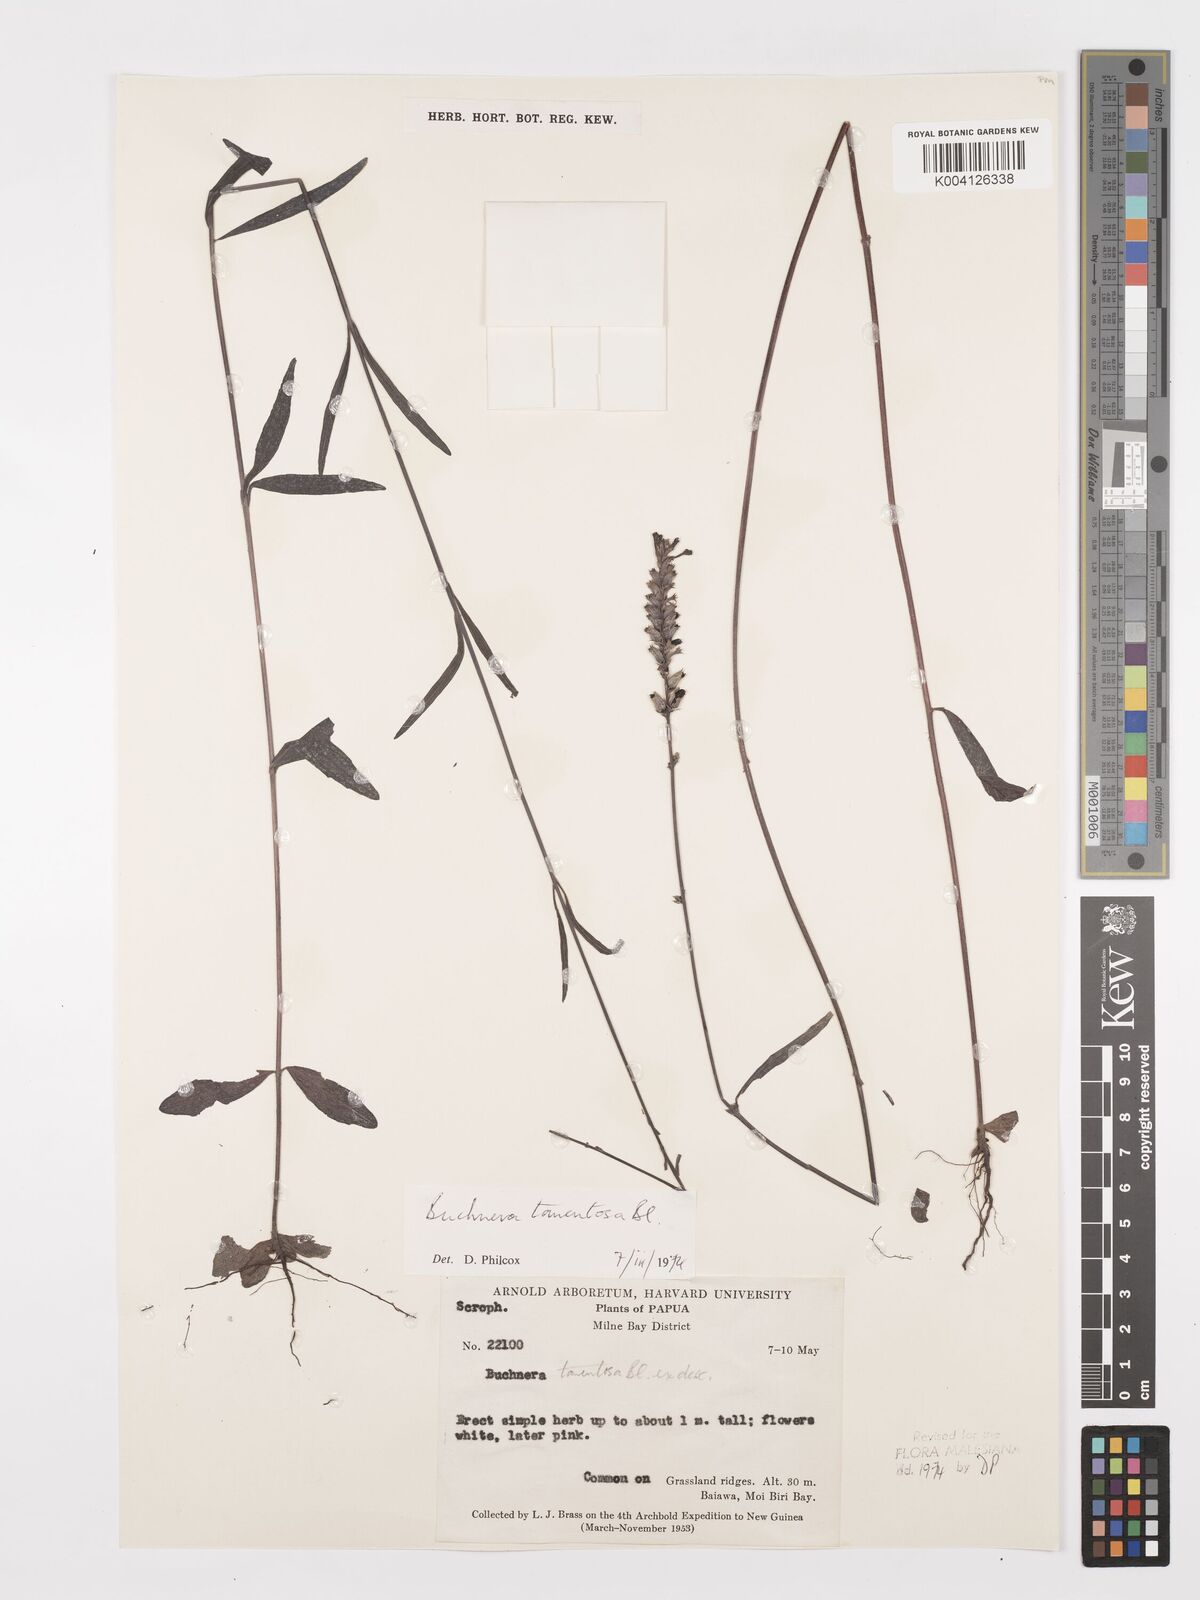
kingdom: Plantae
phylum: Tracheophyta
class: Magnoliopsida
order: Lamiales
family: Orobanchaceae
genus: Buchnera
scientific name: Buchnera tomentosa
